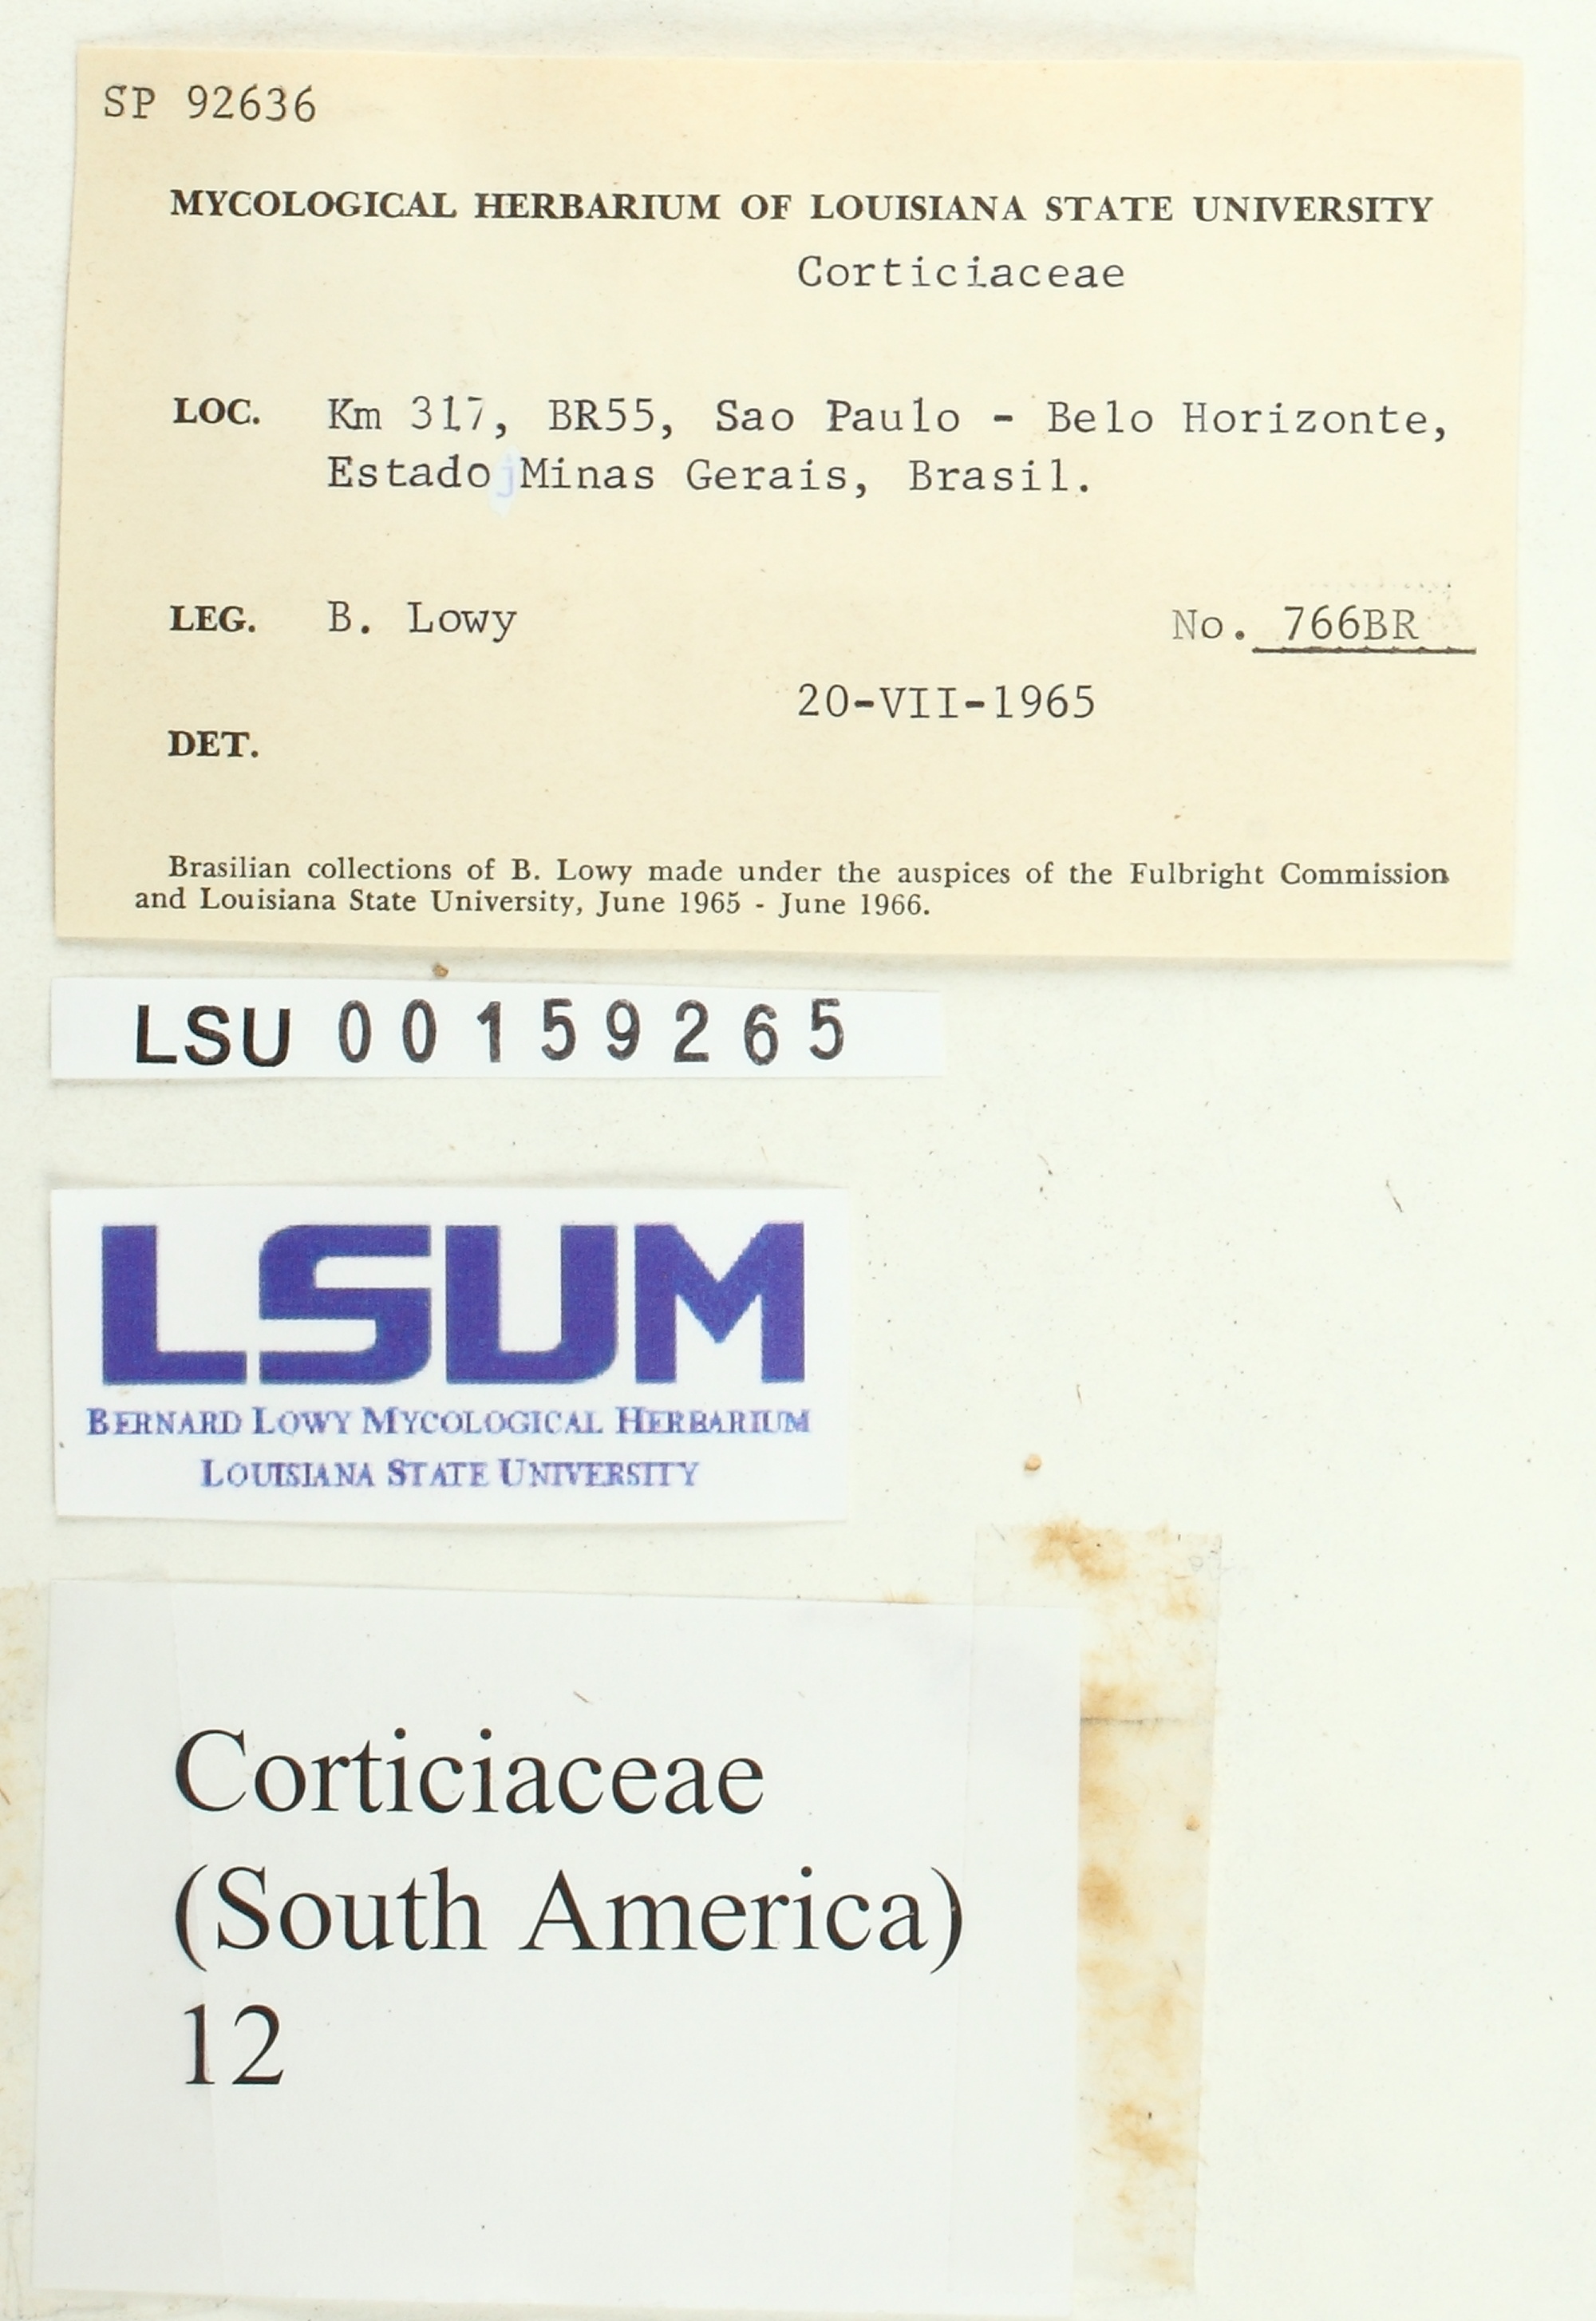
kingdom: Fungi
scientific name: Fungi
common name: Fungi
